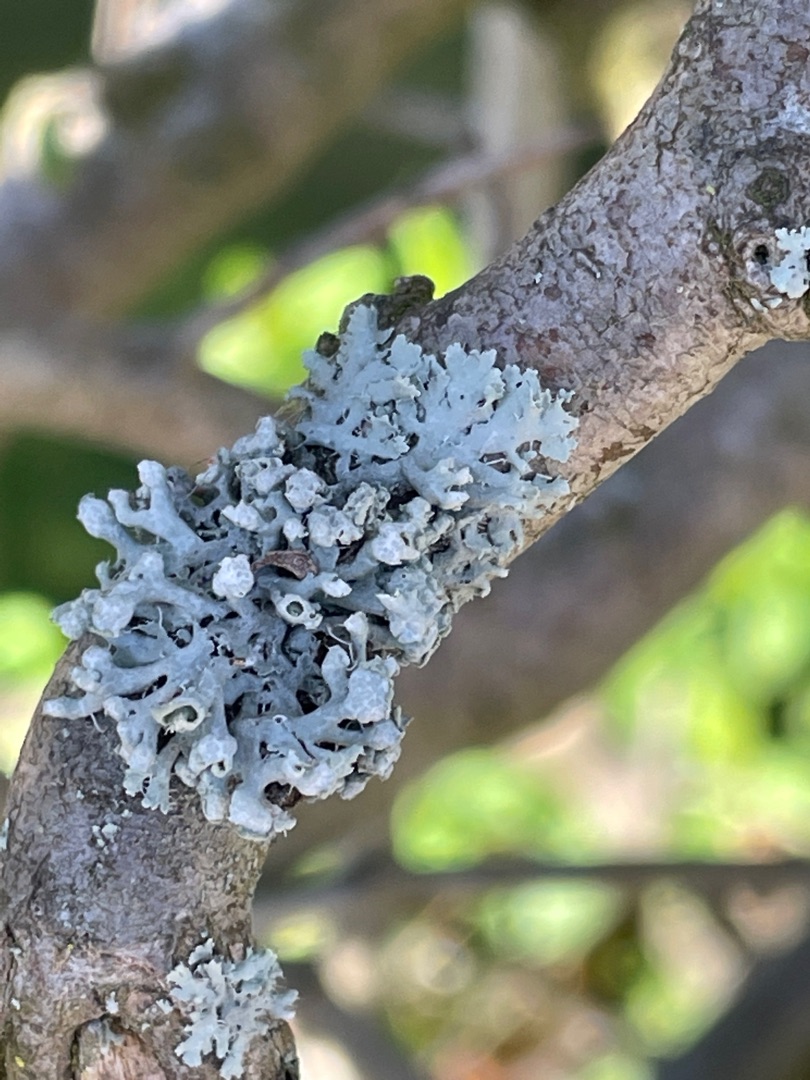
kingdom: Fungi
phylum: Ascomycota
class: Lecanoromycetes
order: Caliciales
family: Physciaceae
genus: Physcia
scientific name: Physcia adscendens
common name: Hætte-rosetlav
